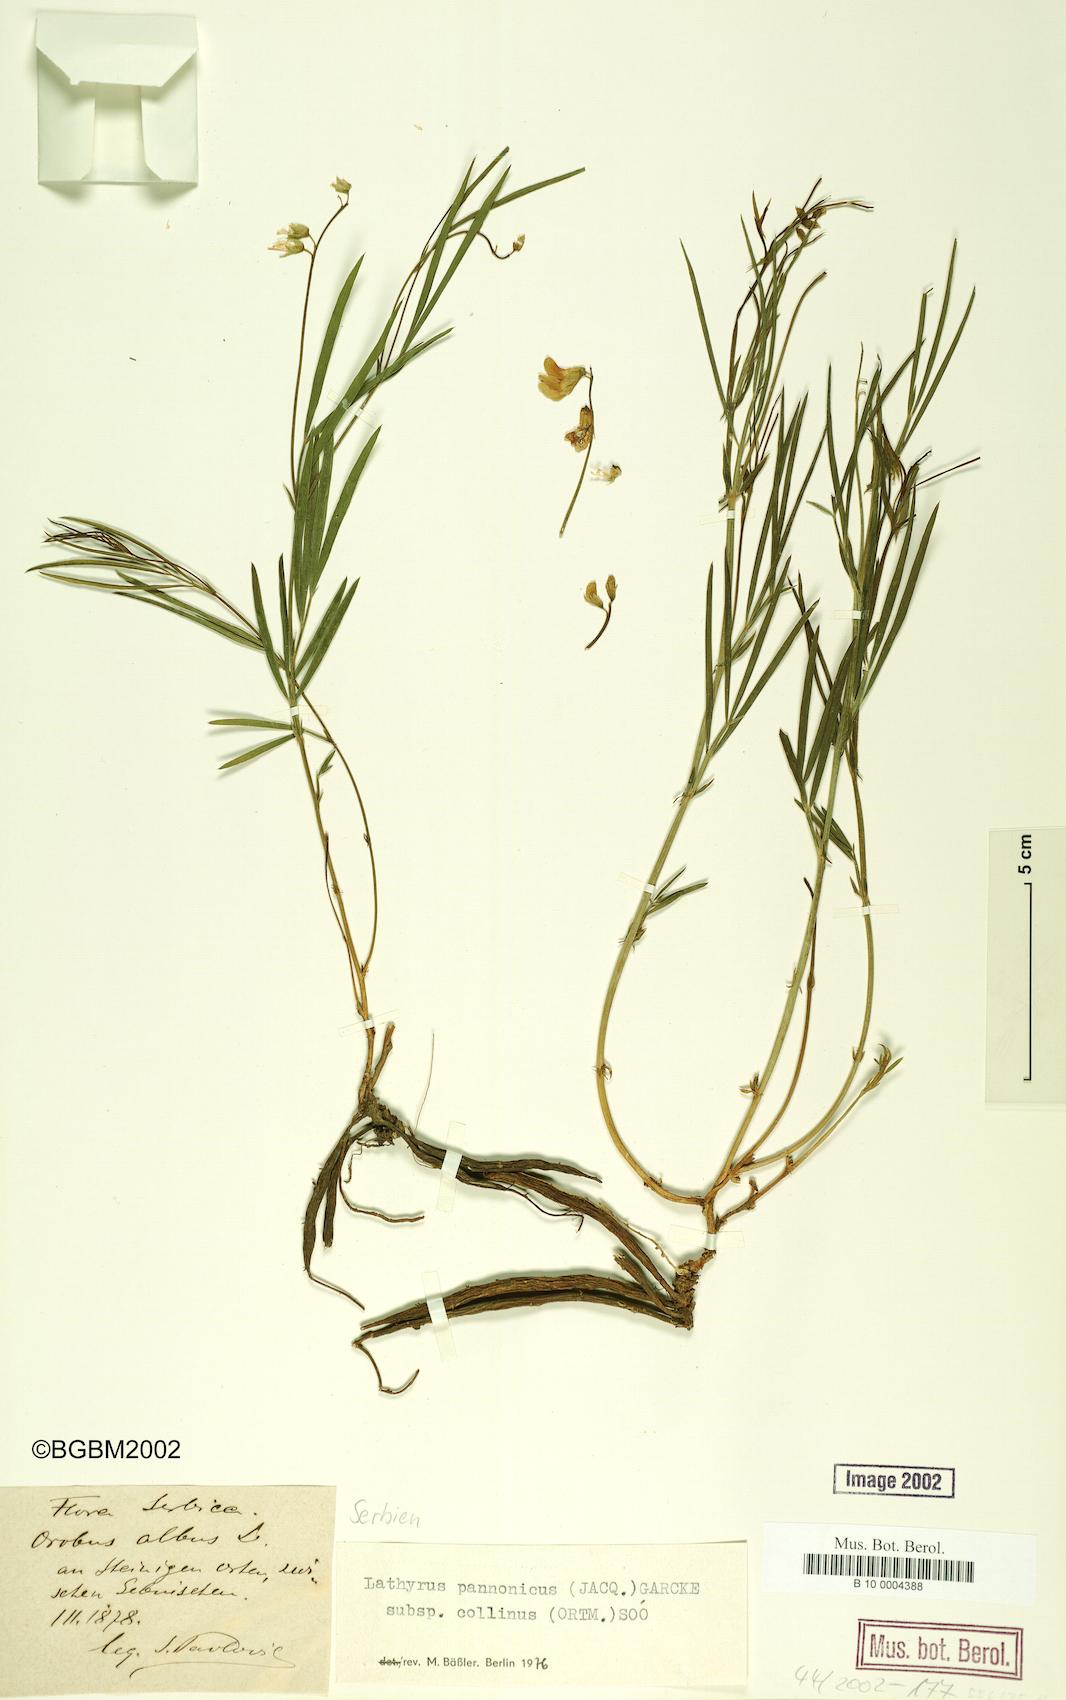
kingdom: Plantae
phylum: Tracheophyta
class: Magnoliopsida
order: Fabales
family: Fabaceae
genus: Lathyrus
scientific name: Lathyrus pannonicus
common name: Pea
